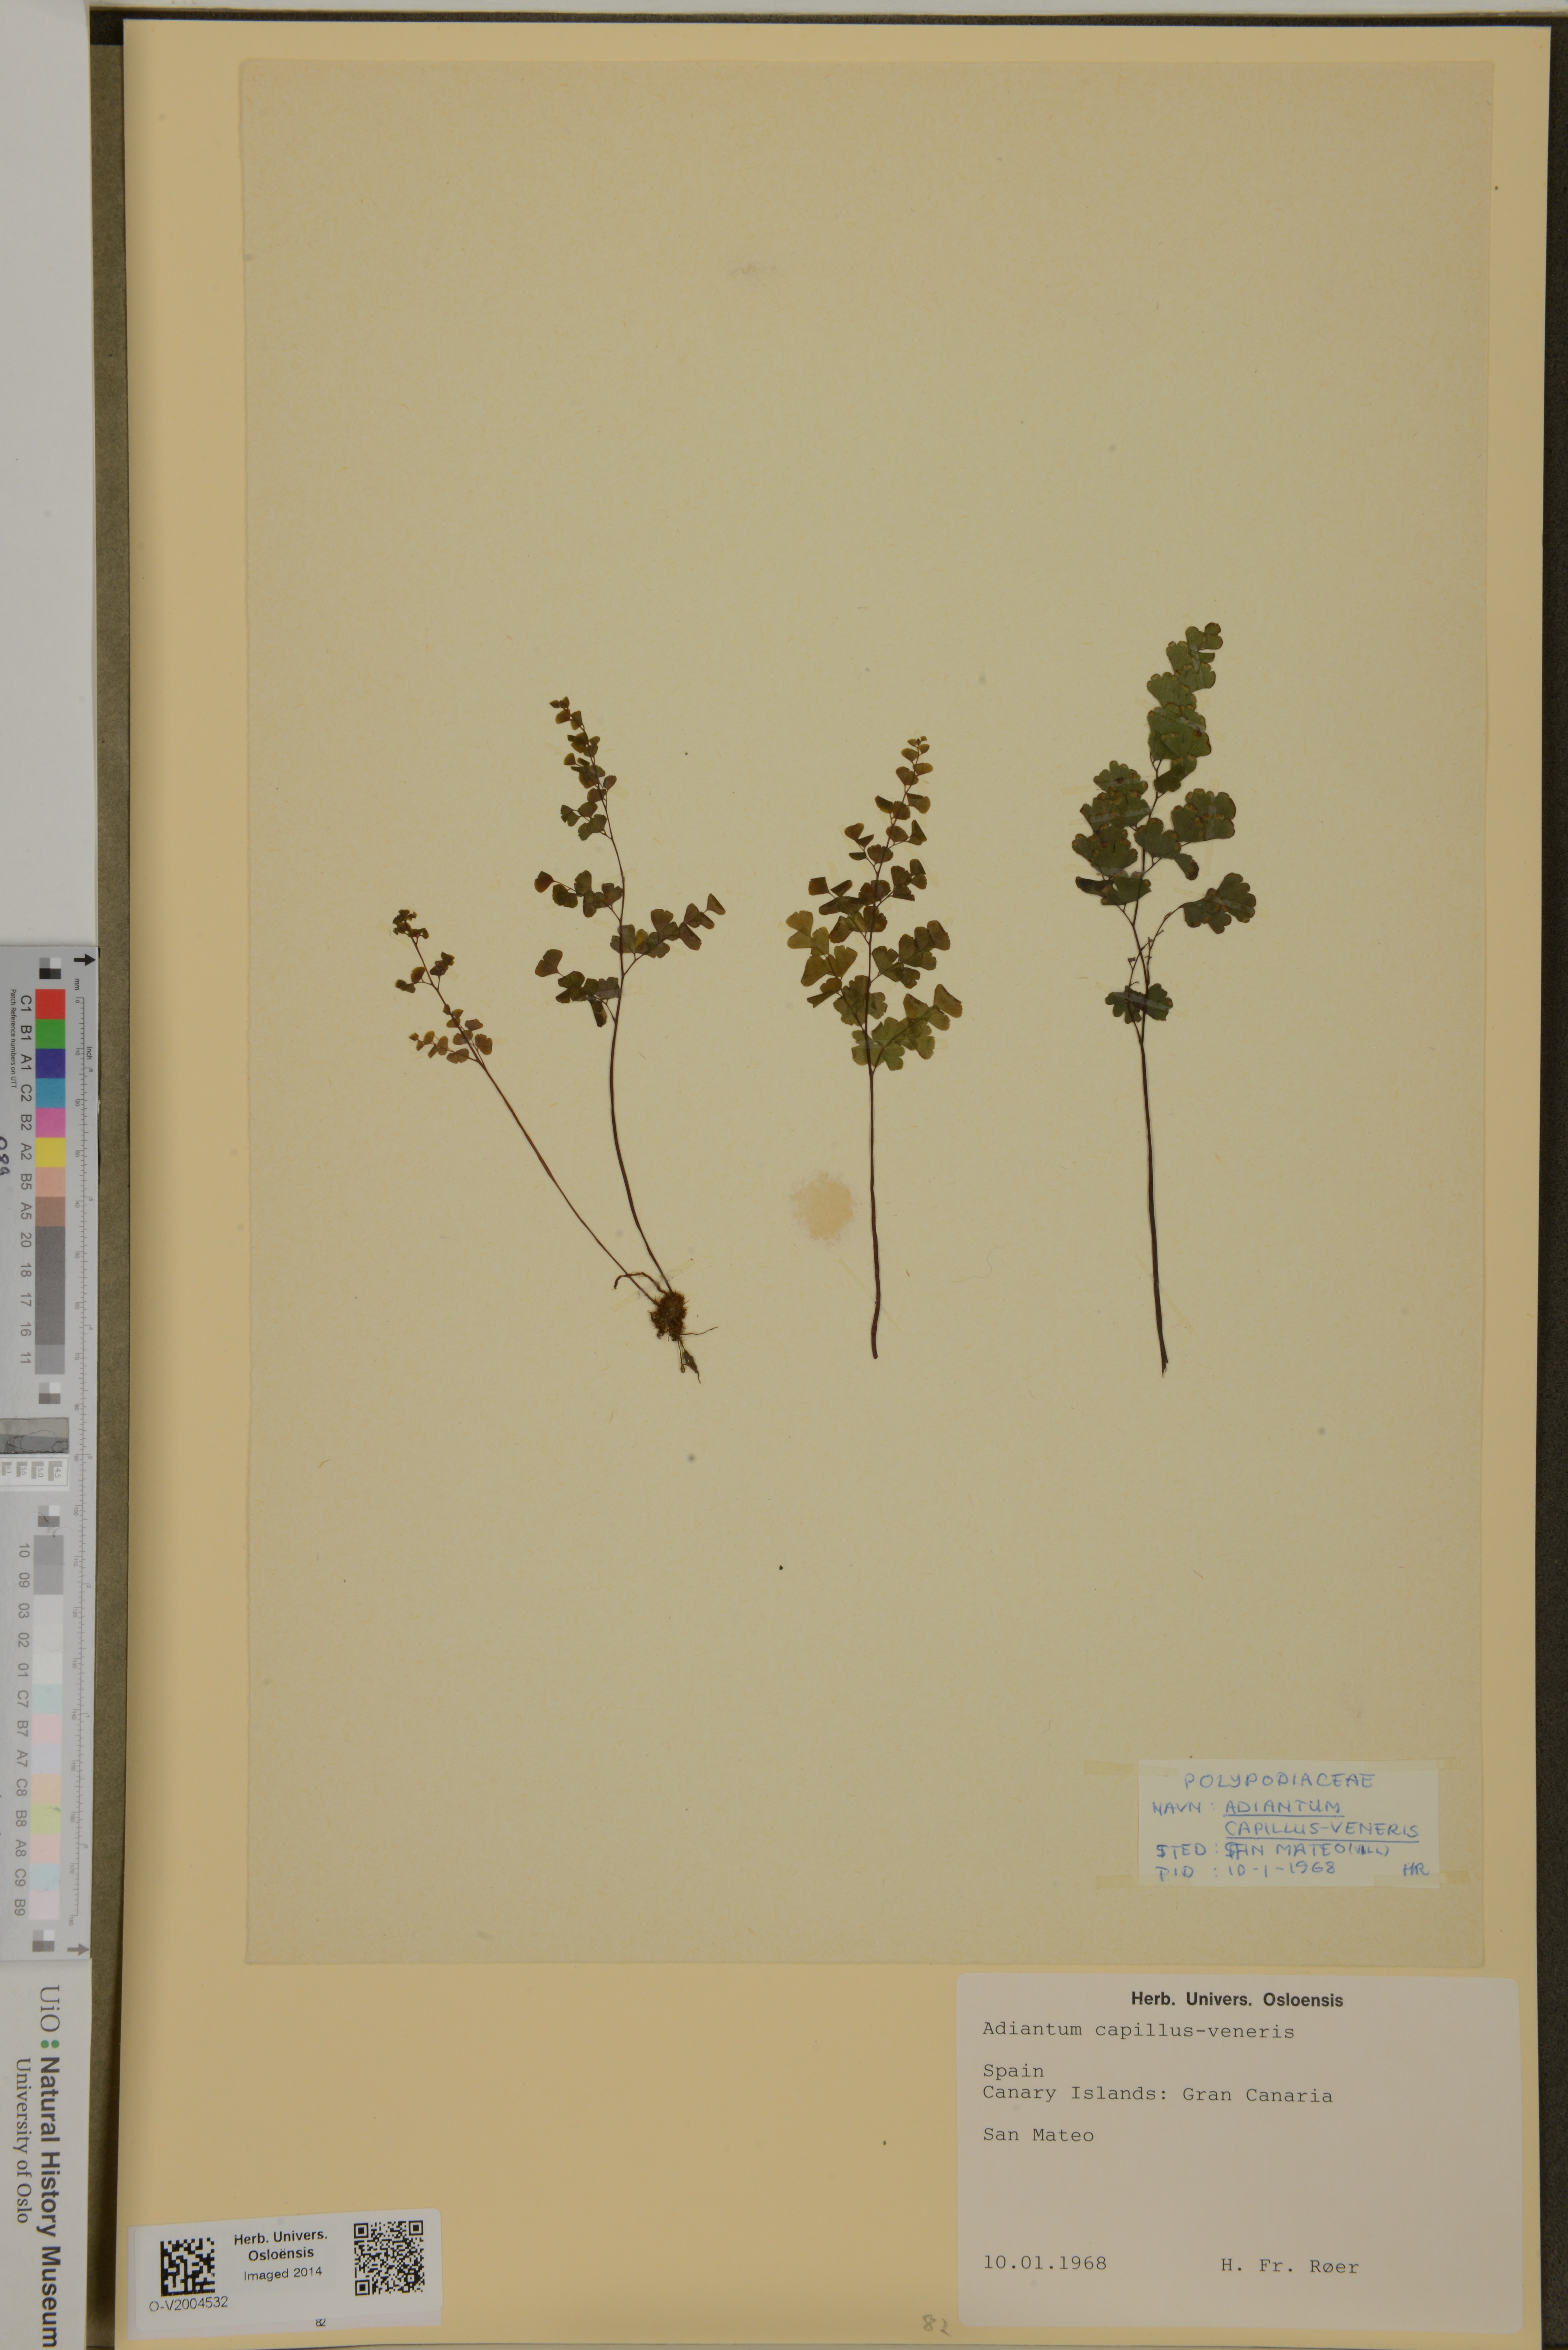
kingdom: Plantae
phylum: Tracheophyta
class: Polypodiopsida
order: Polypodiales
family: Pteridaceae
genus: Adiantum
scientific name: Adiantum capillus-veneris
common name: Maidenhair fern
